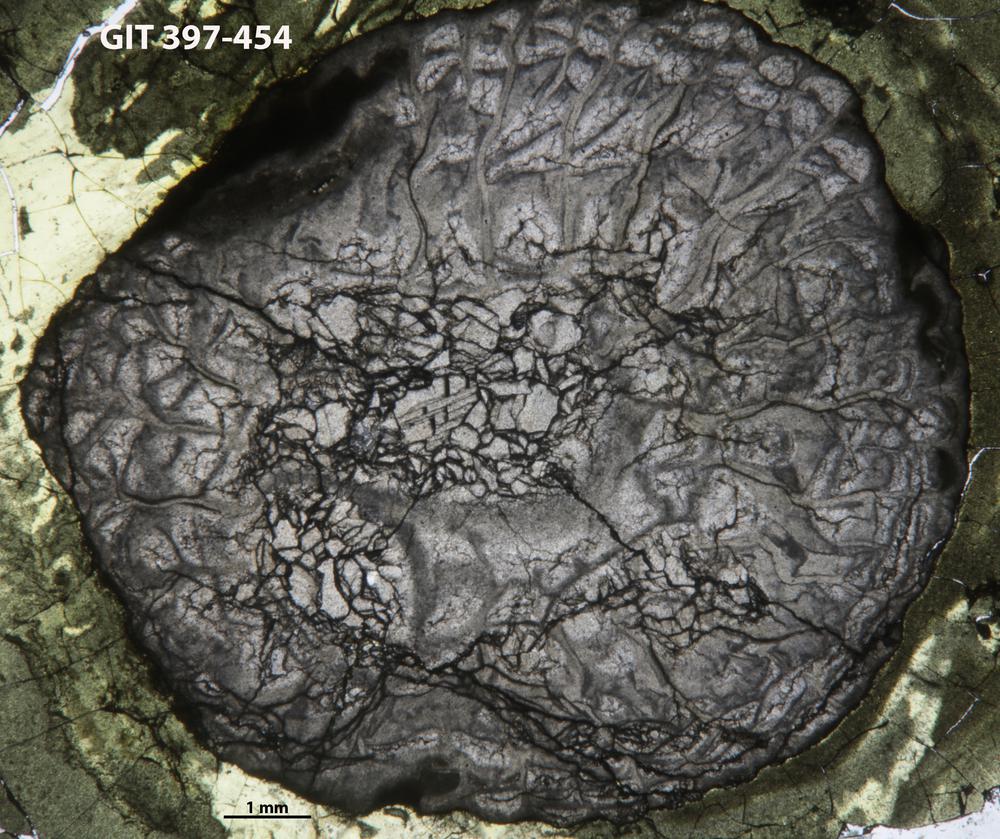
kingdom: Animalia
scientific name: Animalia
